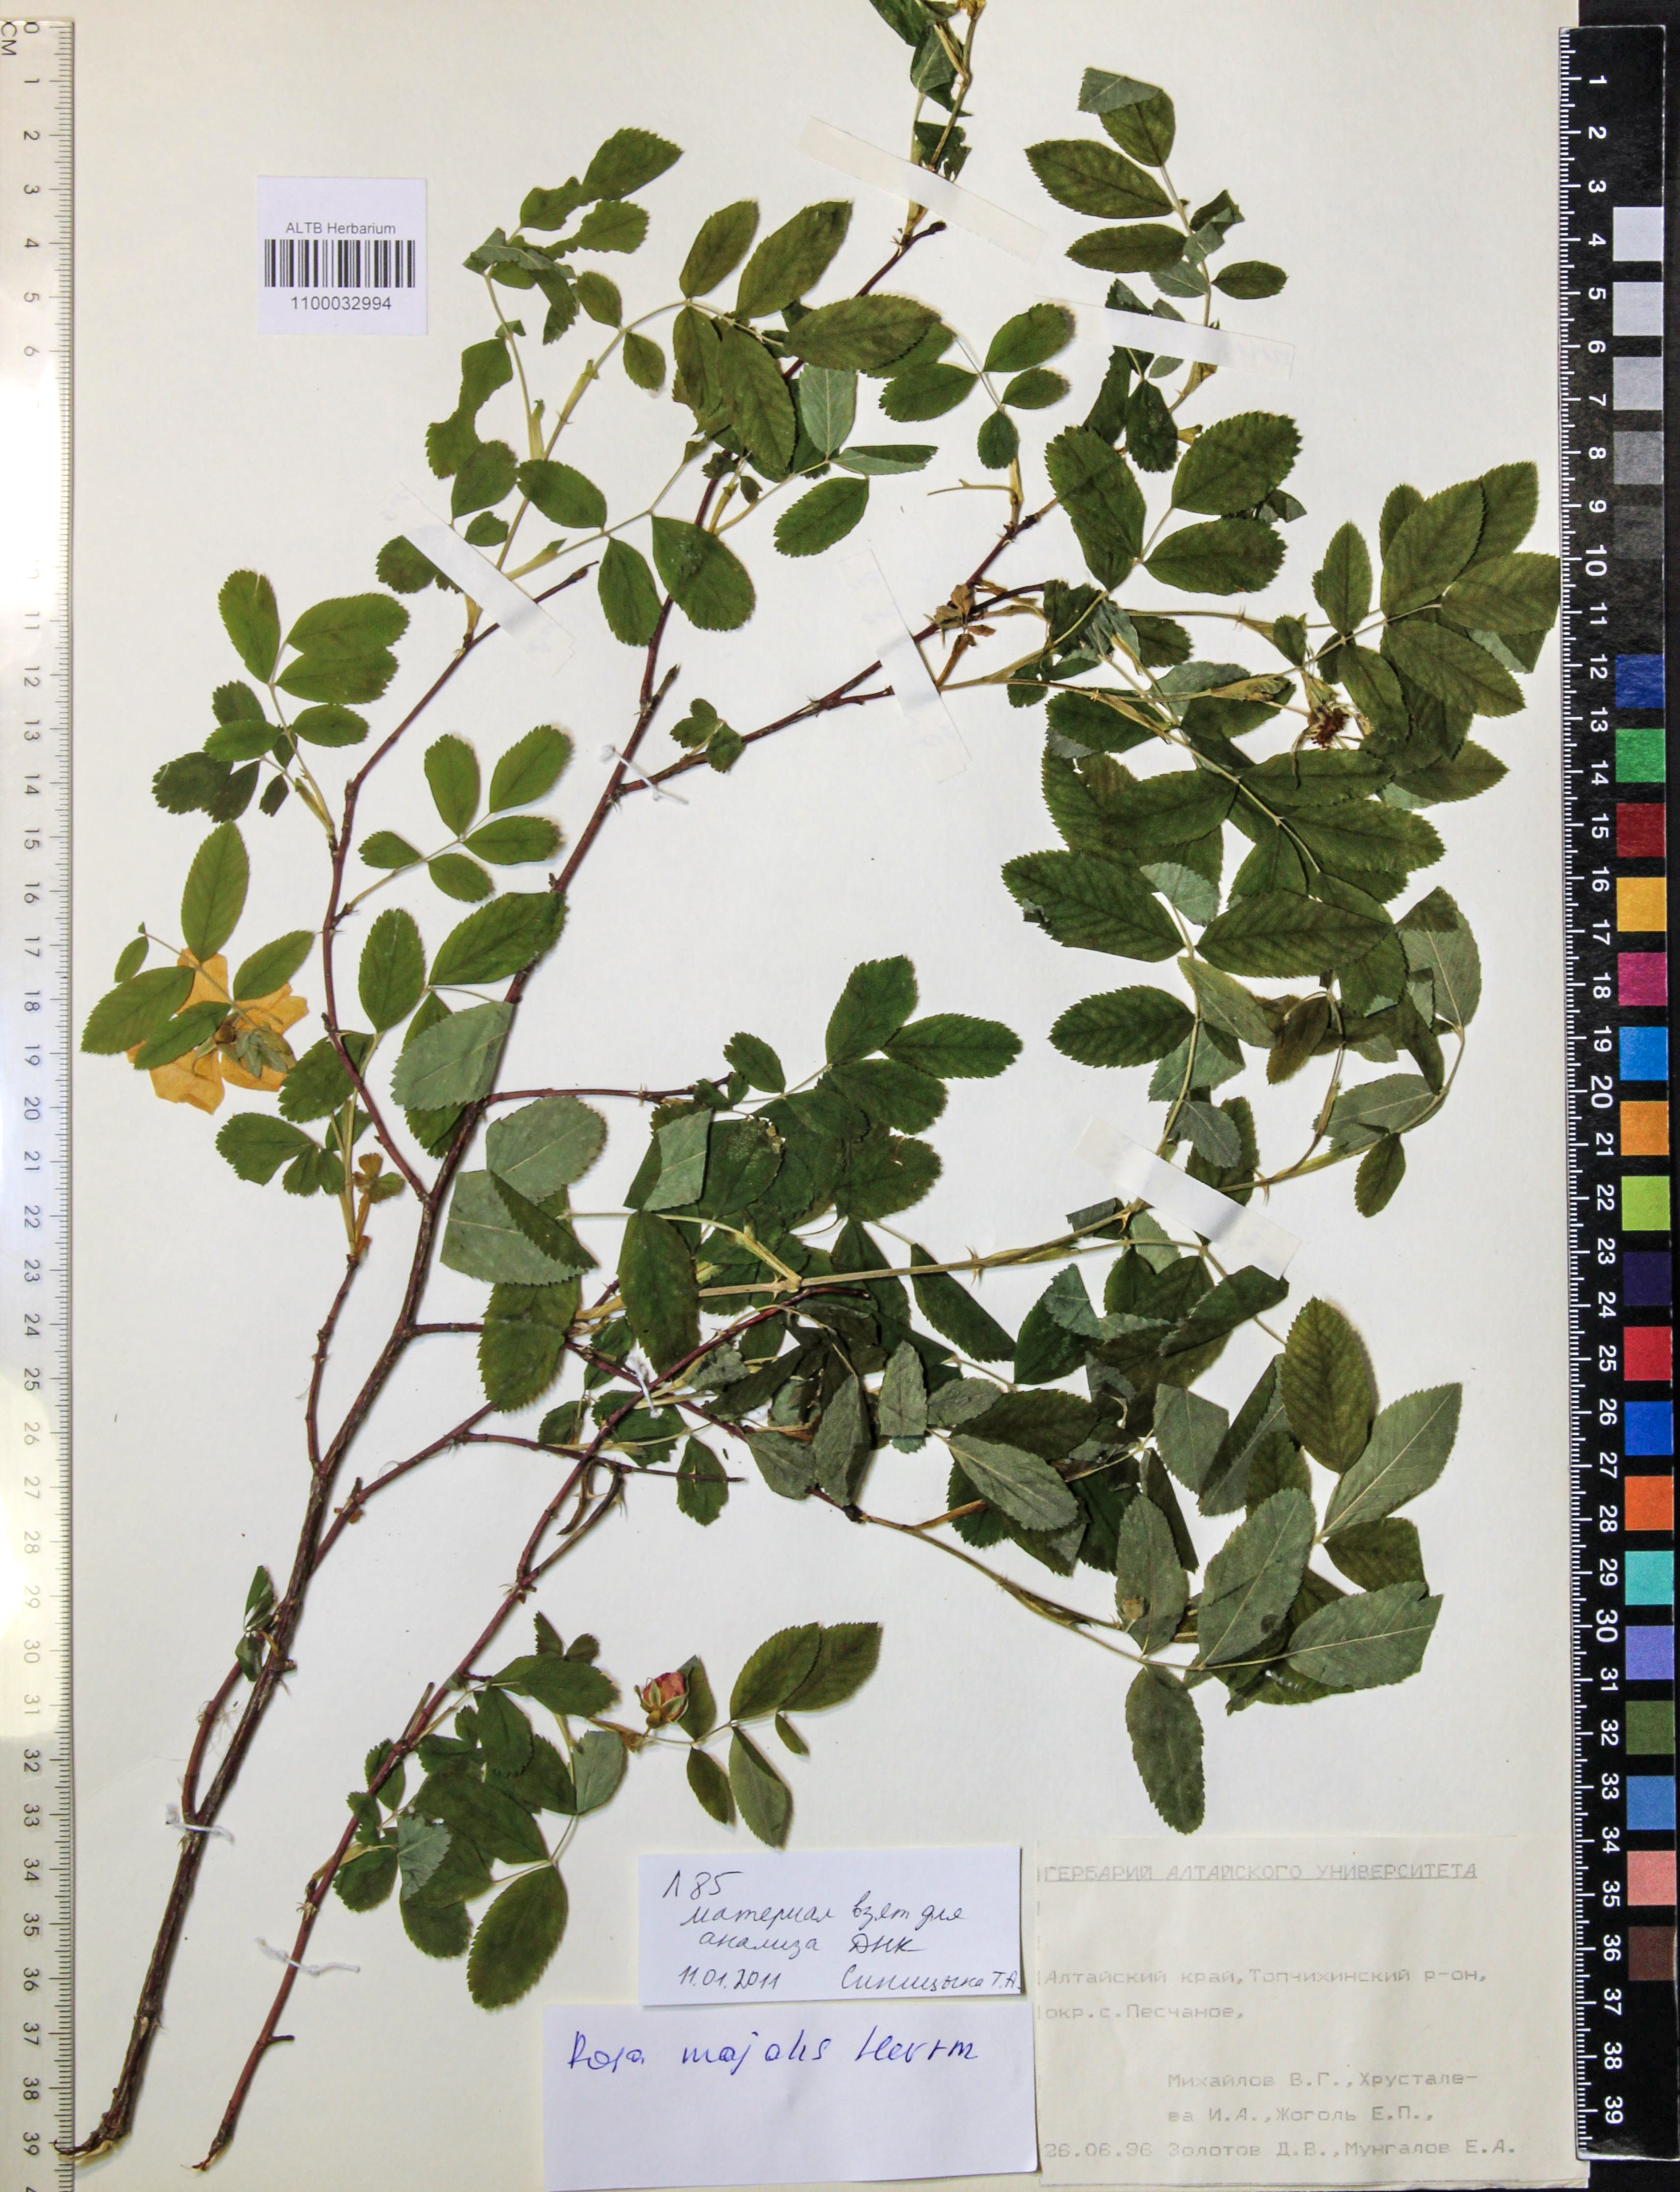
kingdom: Plantae
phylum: Tracheophyta
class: Magnoliopsida
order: Rosales
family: Rosaceae
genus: Rosa
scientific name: Rosa majalis
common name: Cinnamon rose
